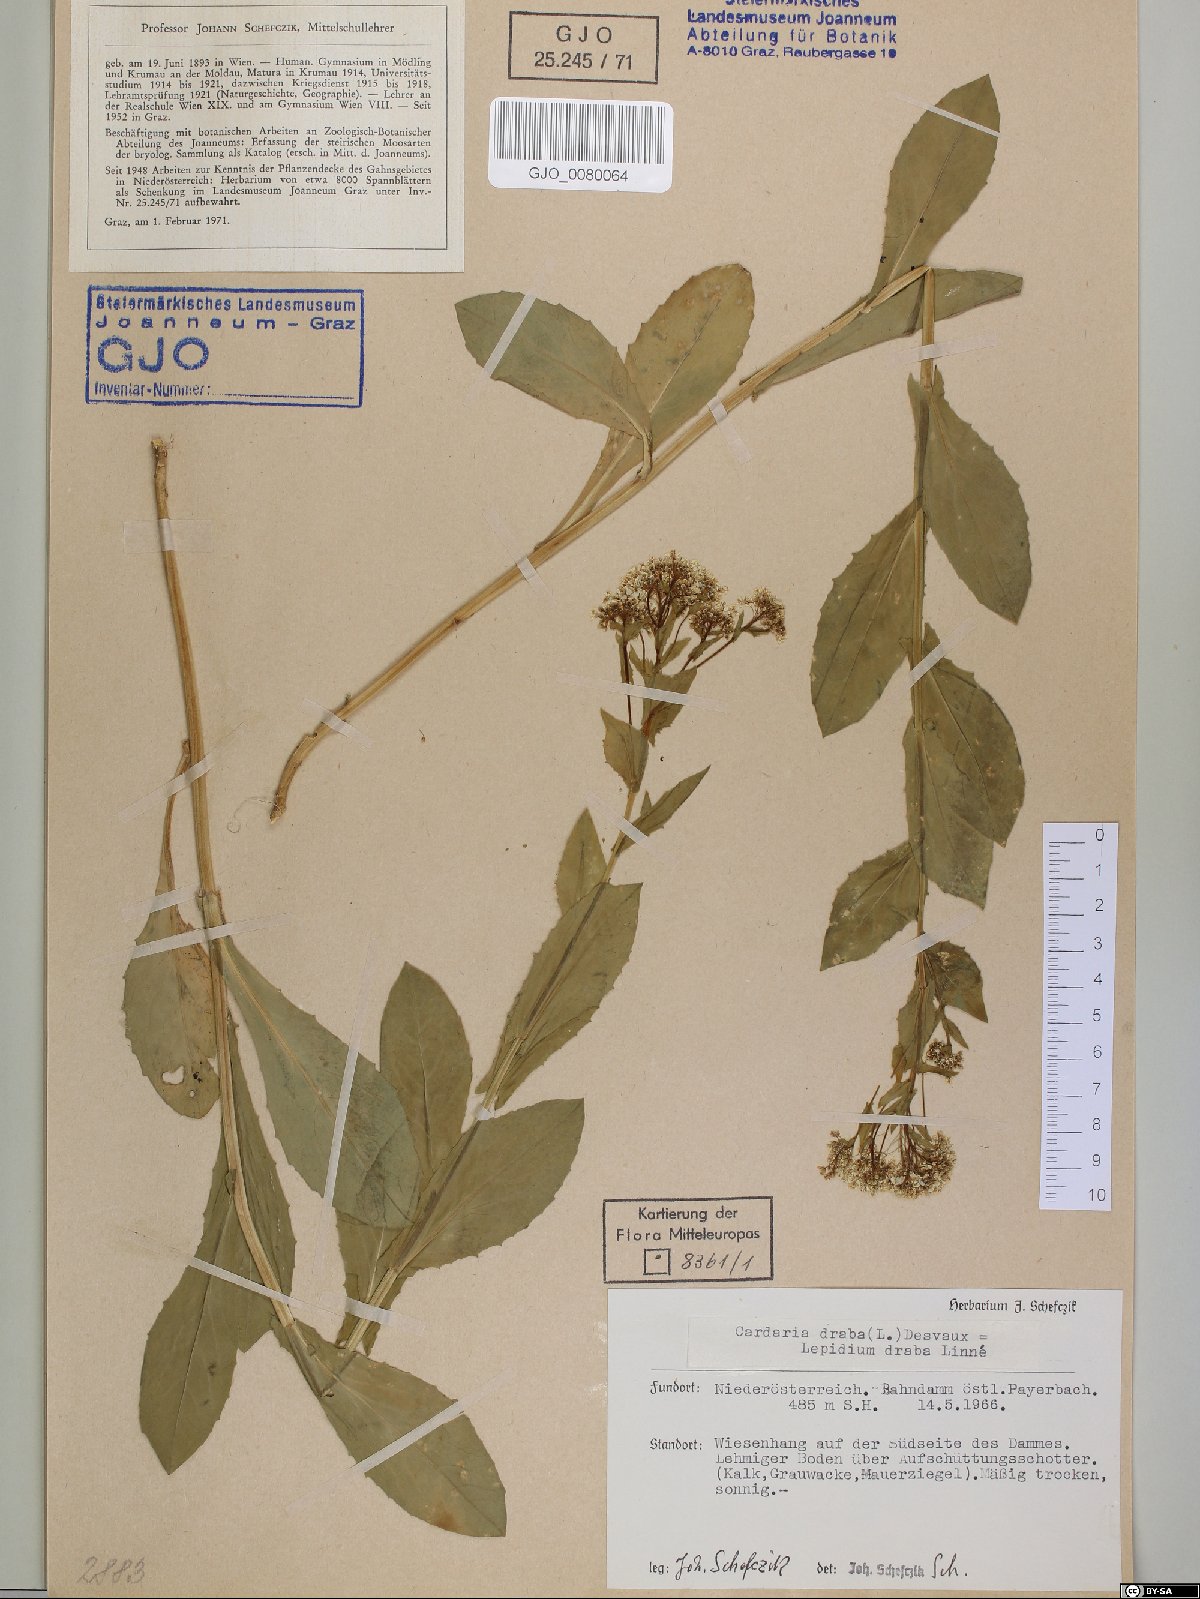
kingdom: Plantae
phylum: Tracheophyta
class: Magnoliopsida
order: Brassicales
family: Brassicaceae
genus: Lepidium
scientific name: Lepidium draba
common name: Hoary cress
